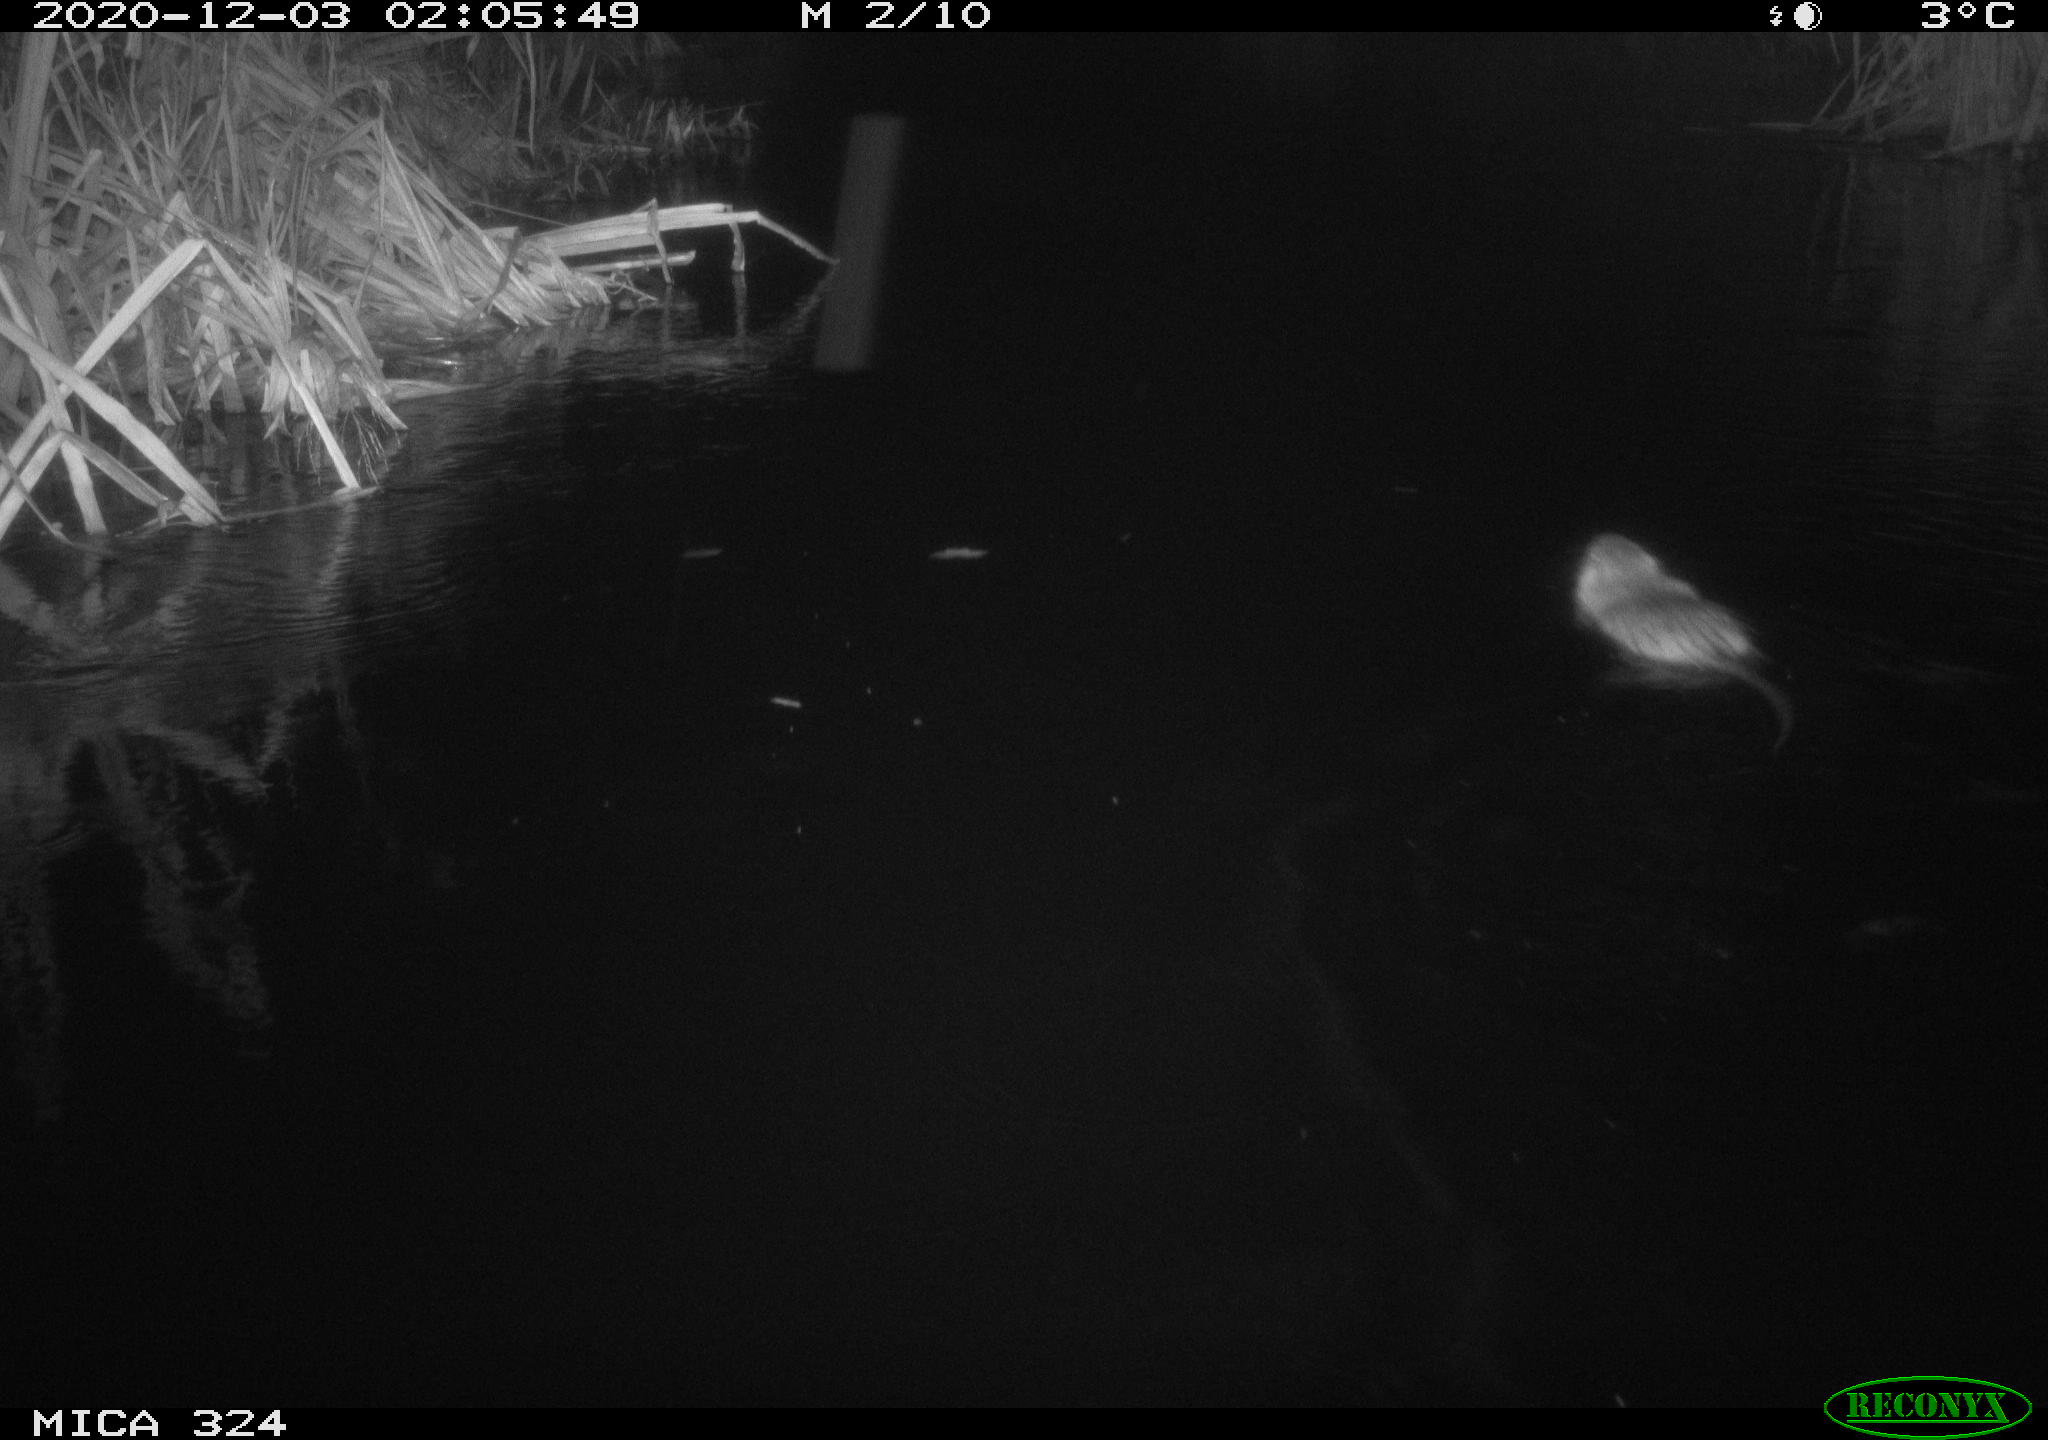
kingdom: Animalia
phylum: Chordata
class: Mammalia
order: Rodentia
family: Myocastoridae
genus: Myocastor
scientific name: Myocastor coypus
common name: Coypu
